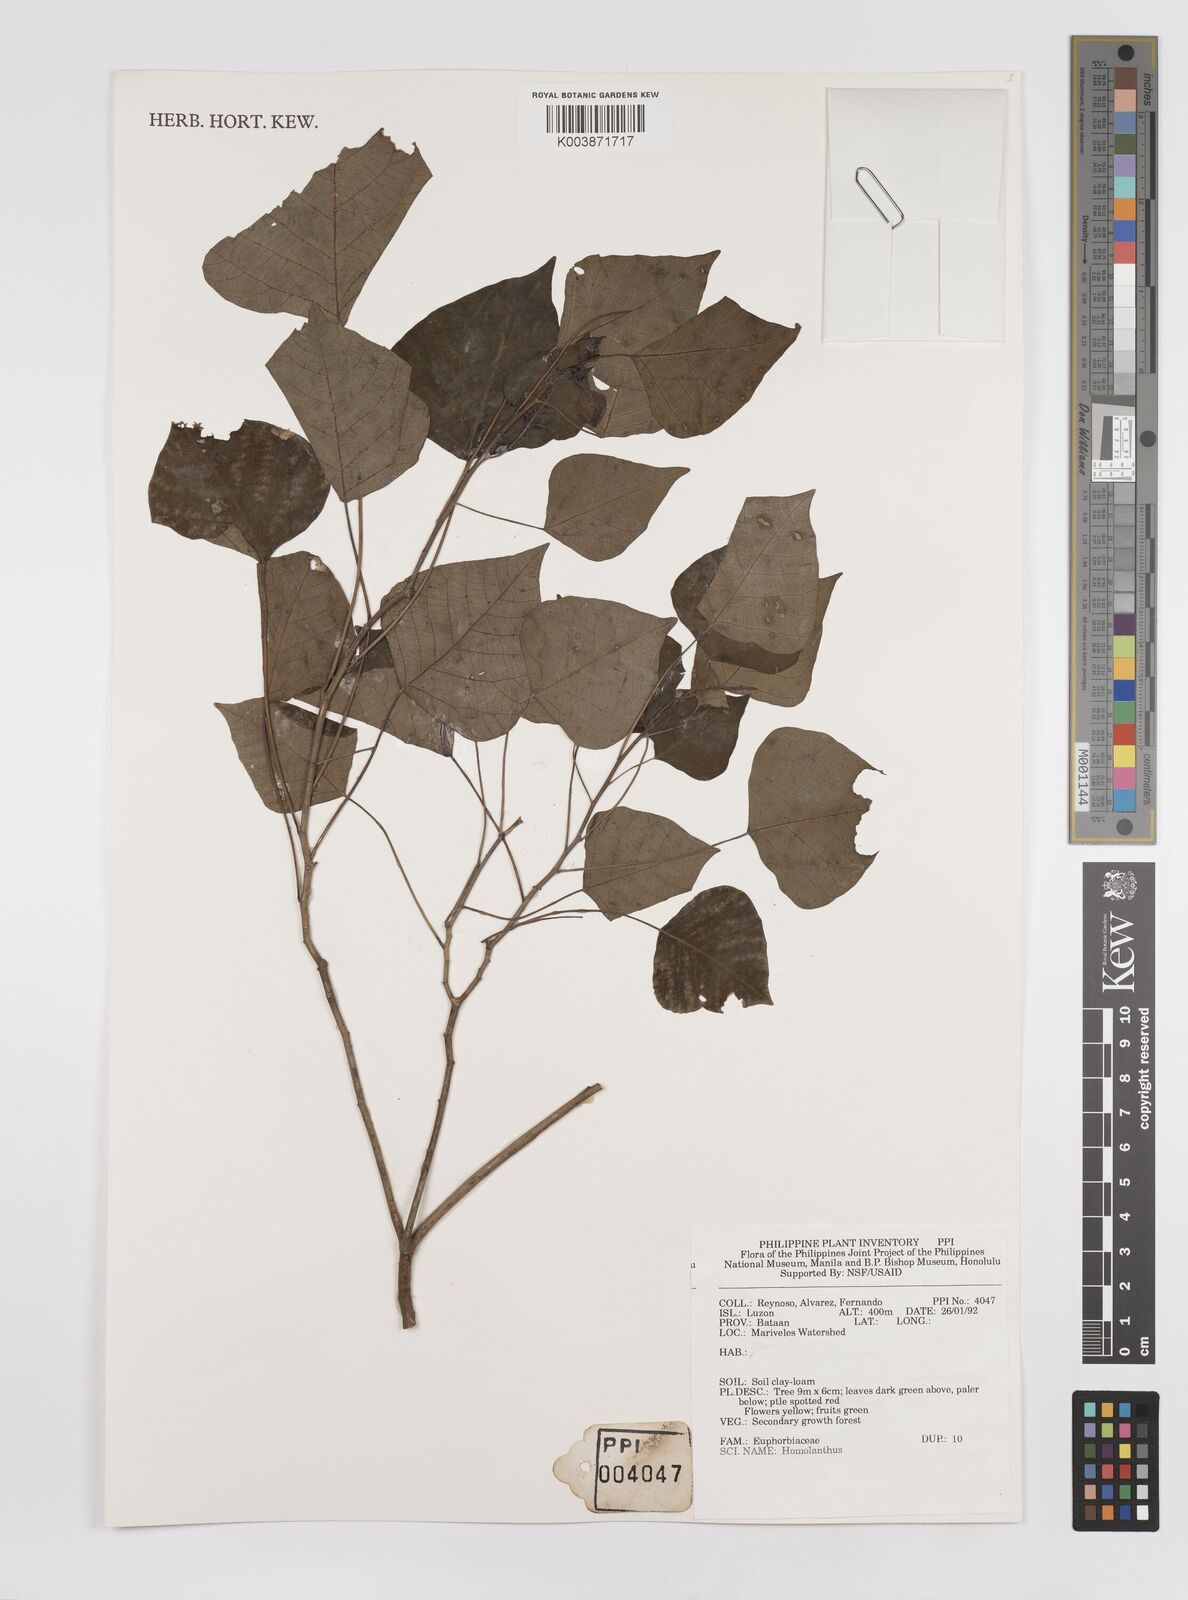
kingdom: Plantae
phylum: Tracheophyta
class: Magnoliopsida
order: Malpighiales
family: Euphorbiaceae
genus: Homalanthus
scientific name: Homalanthus populneus
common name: Spurge
